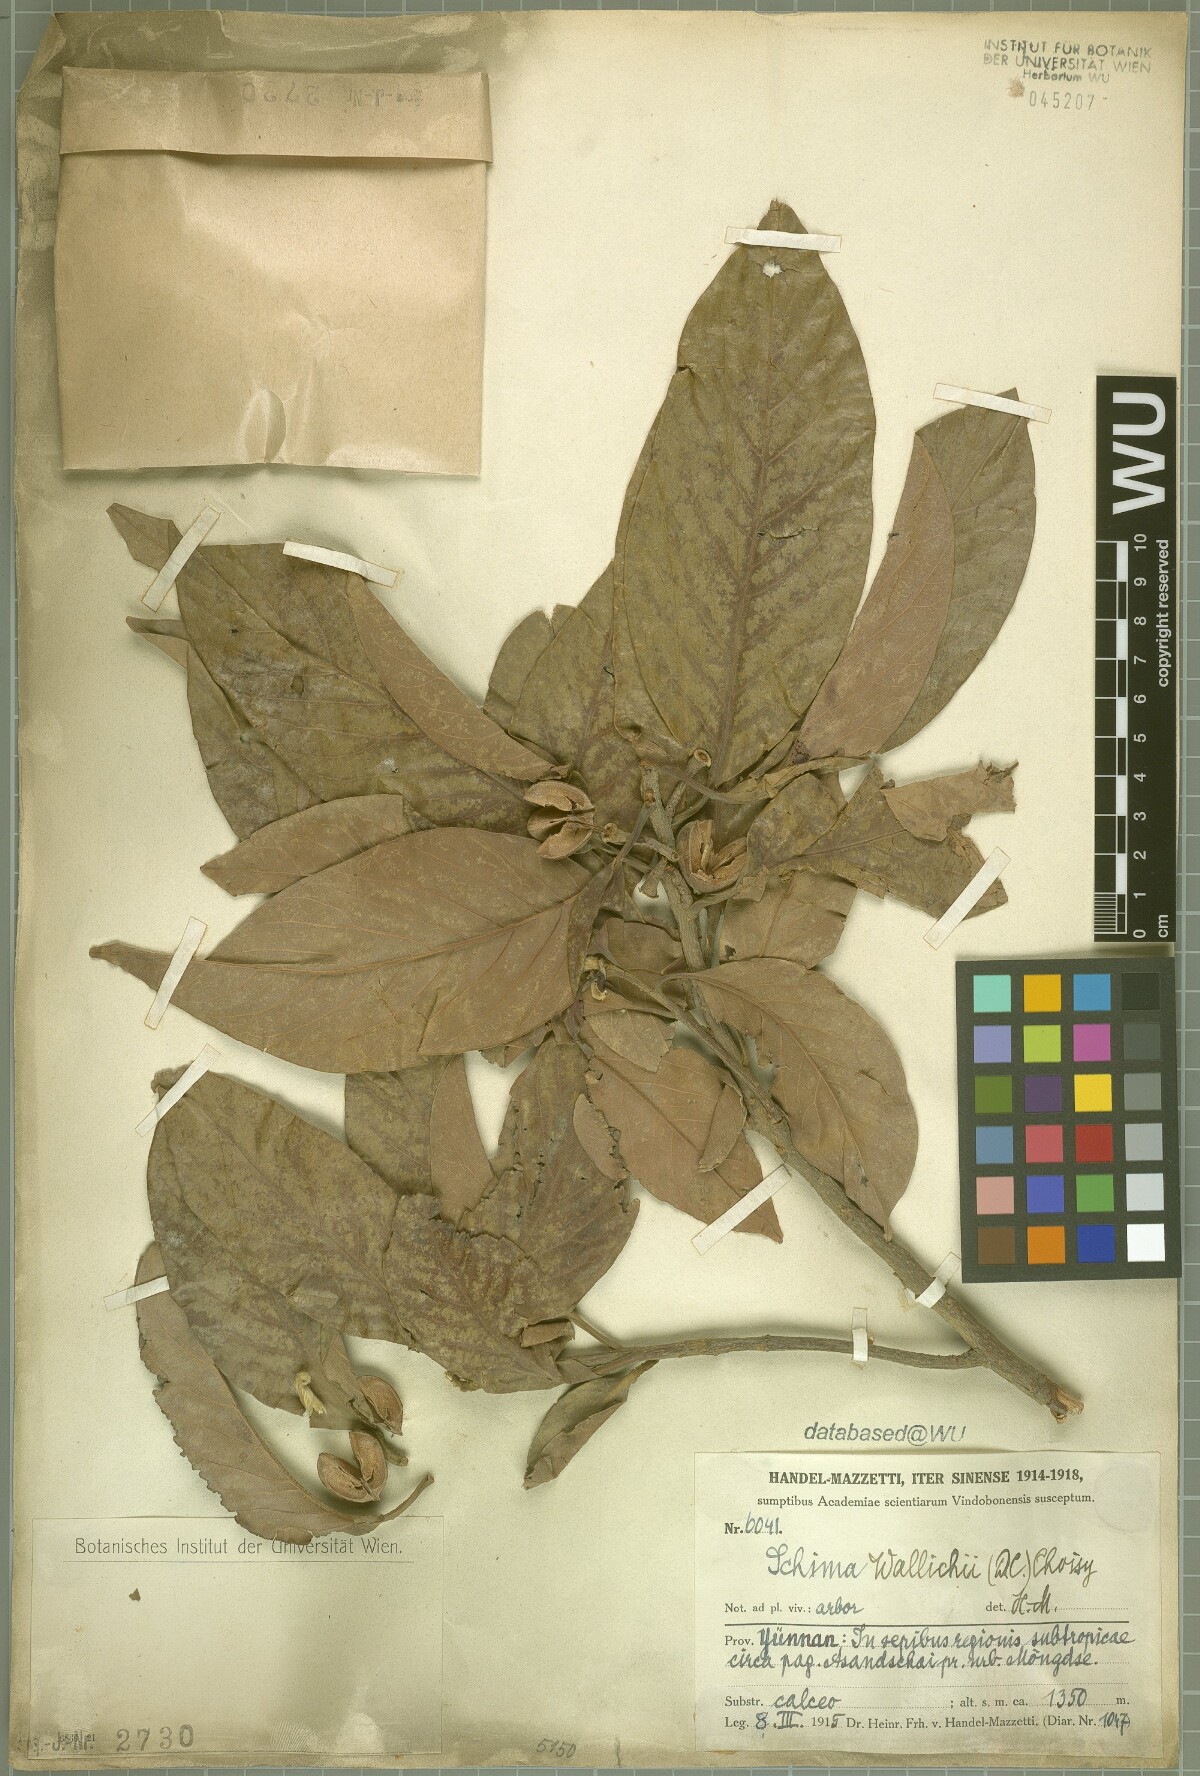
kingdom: Plantae
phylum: Tracheophyta
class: Magnoliopsida
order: Ericales
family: Theaceae
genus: Schima
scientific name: Schima wallichii
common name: Schima
